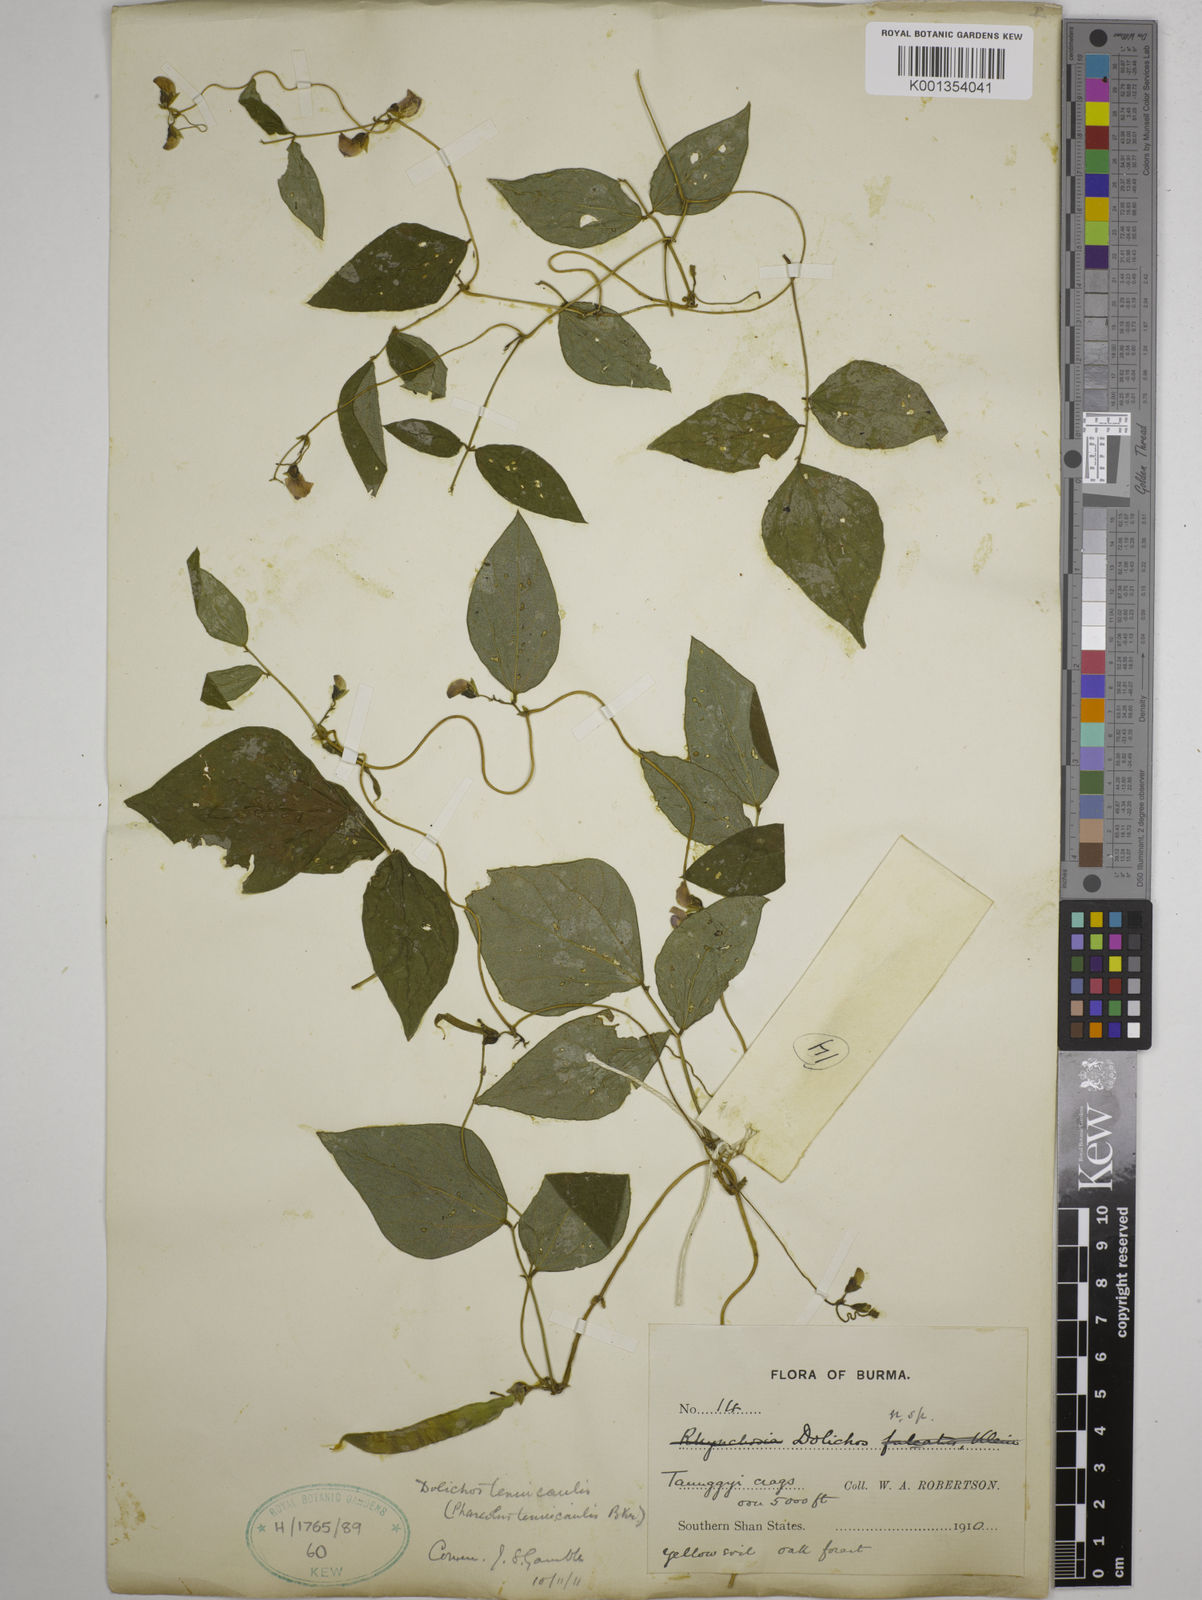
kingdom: Plantae
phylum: Tracheophyta
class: Magnoliopsida
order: Fabales
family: Fabaceae
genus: Dolichos
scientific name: Dolichos tenuicaulis
